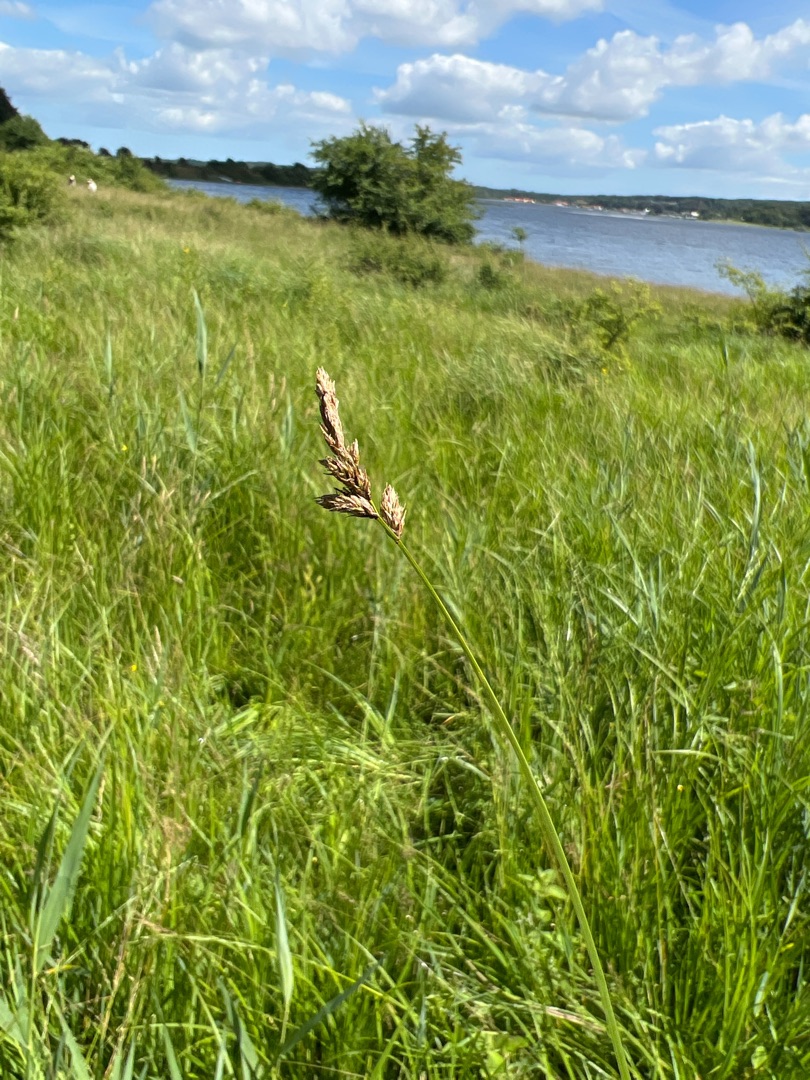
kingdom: Plantae
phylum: Tracheophyta
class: Liliopsida
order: Poales
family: Cyperaceae
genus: Carex
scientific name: Carex disticha
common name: Toradet star
